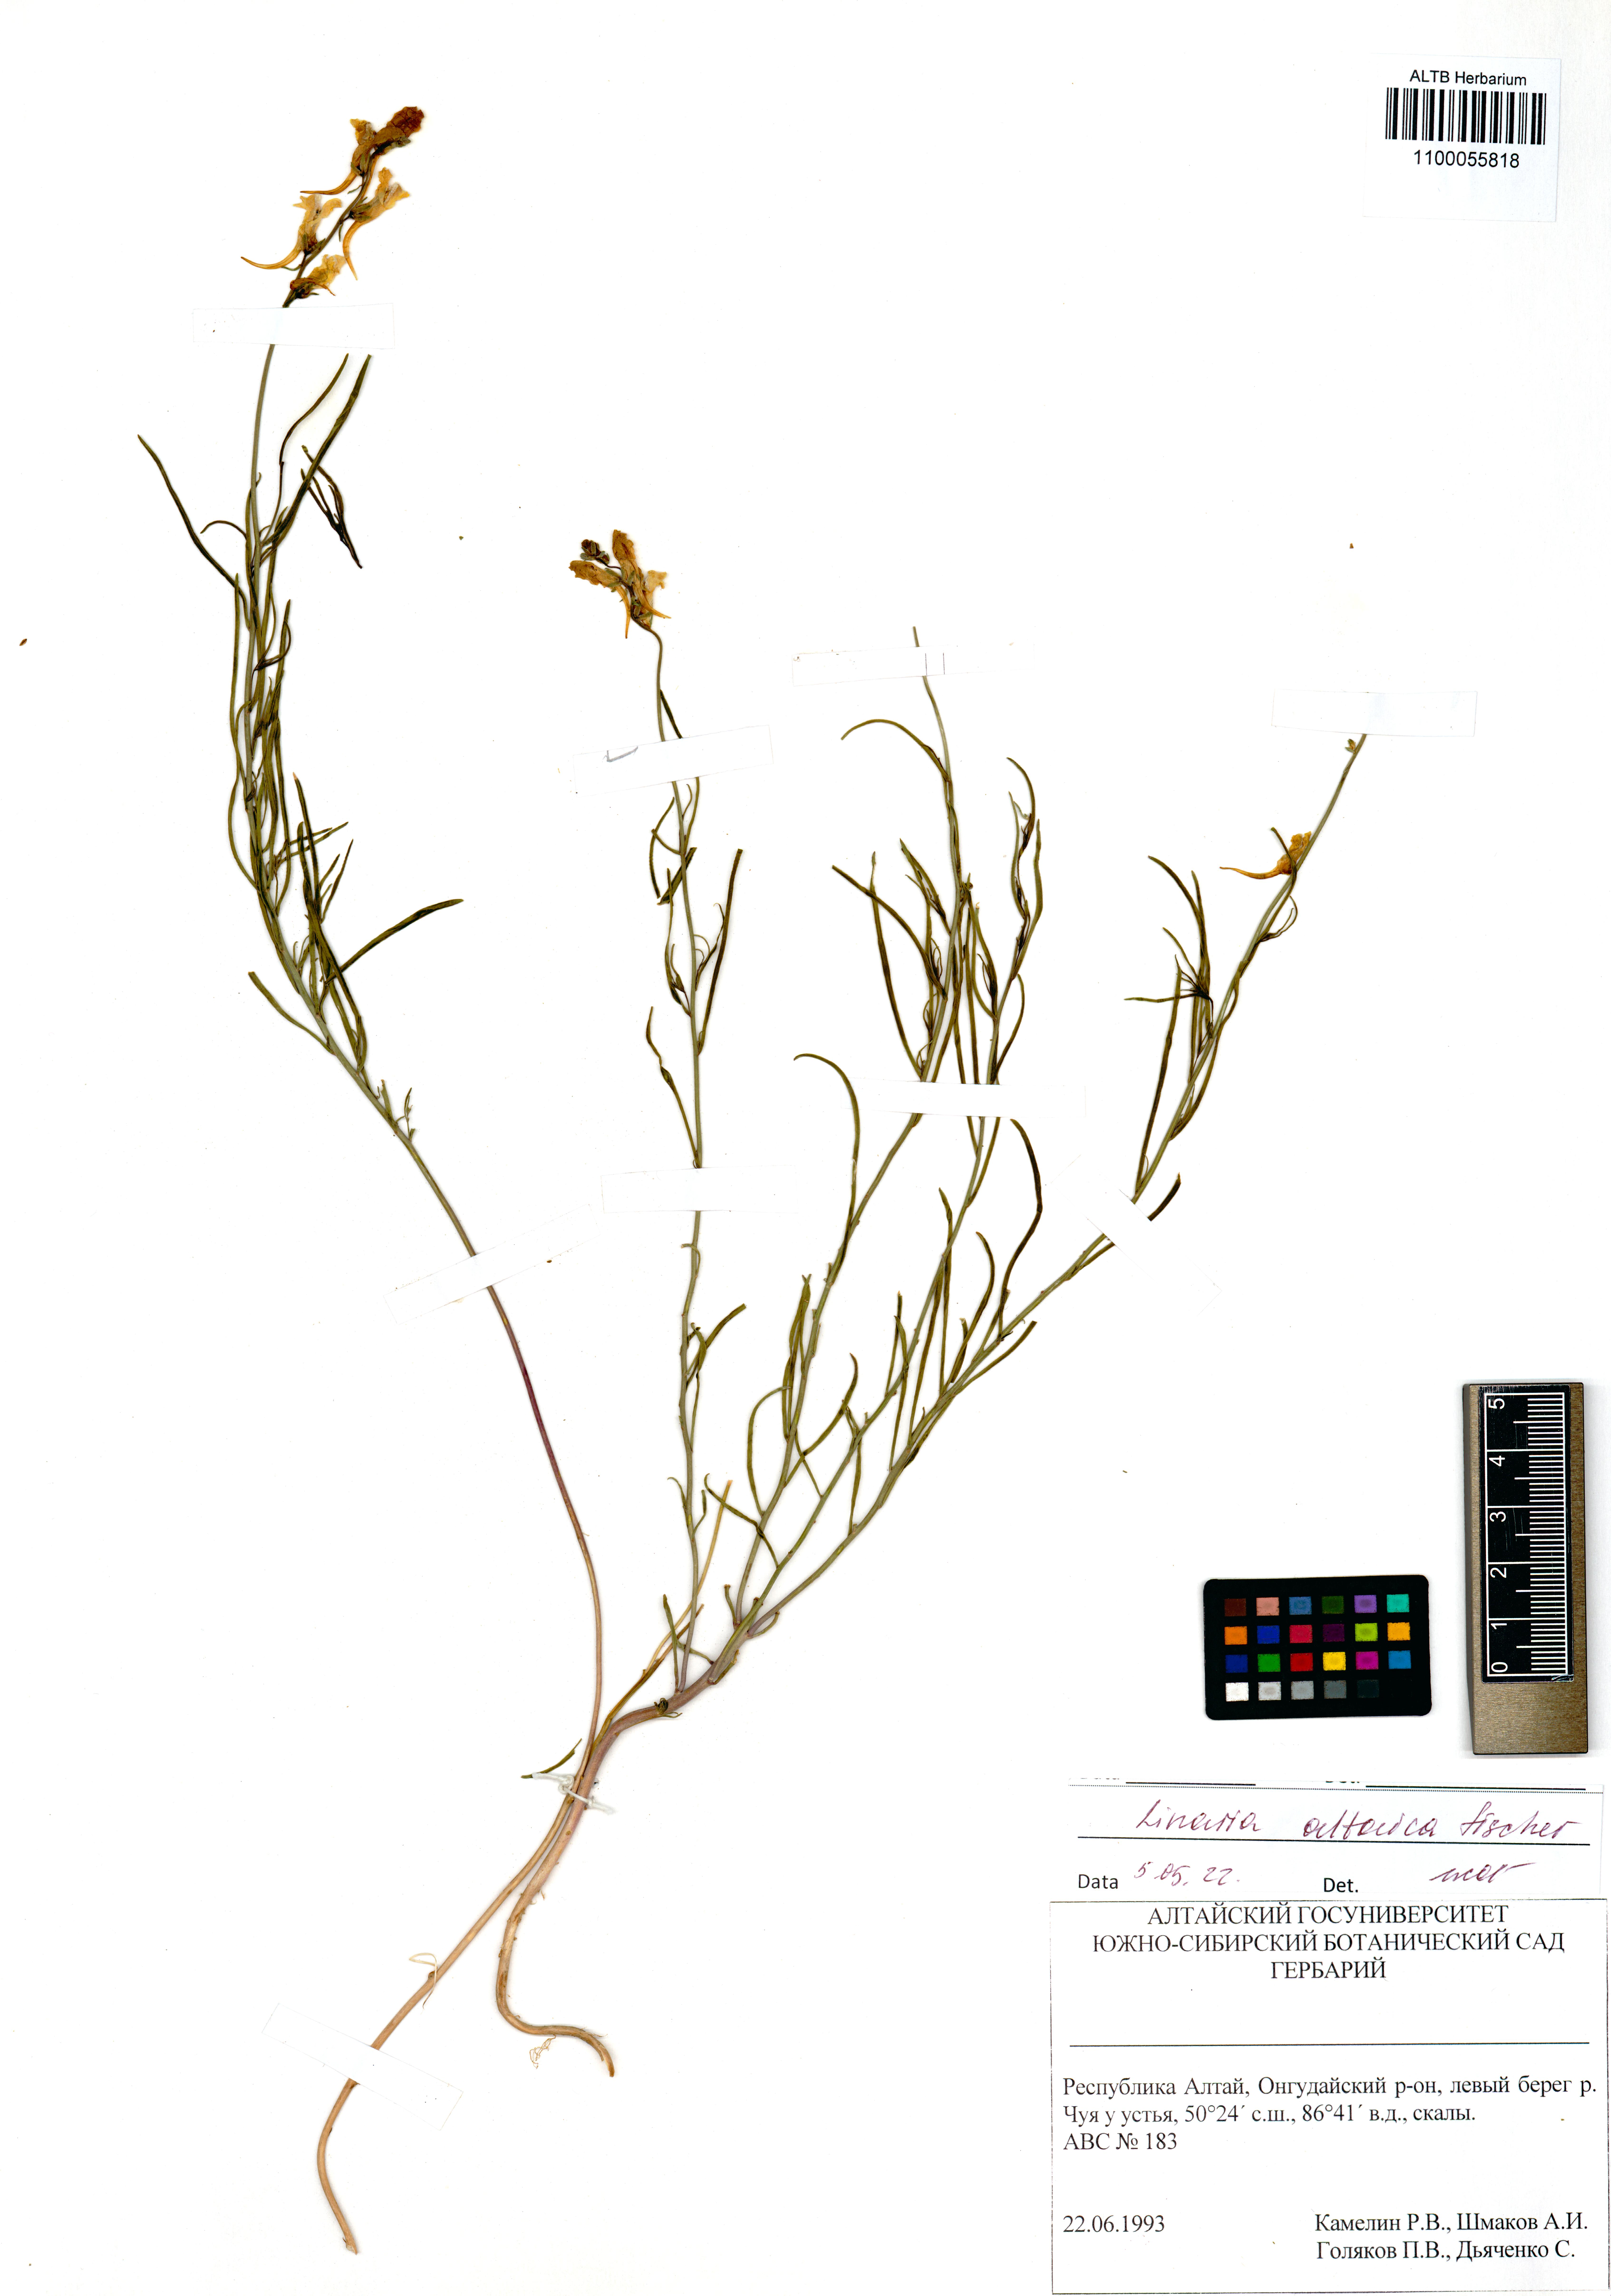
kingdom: Plantae
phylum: Tracheophyta
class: Magnoliopsida
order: Lamiales
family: Plantaginaceae
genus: Linaria
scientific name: Linaria altaica
